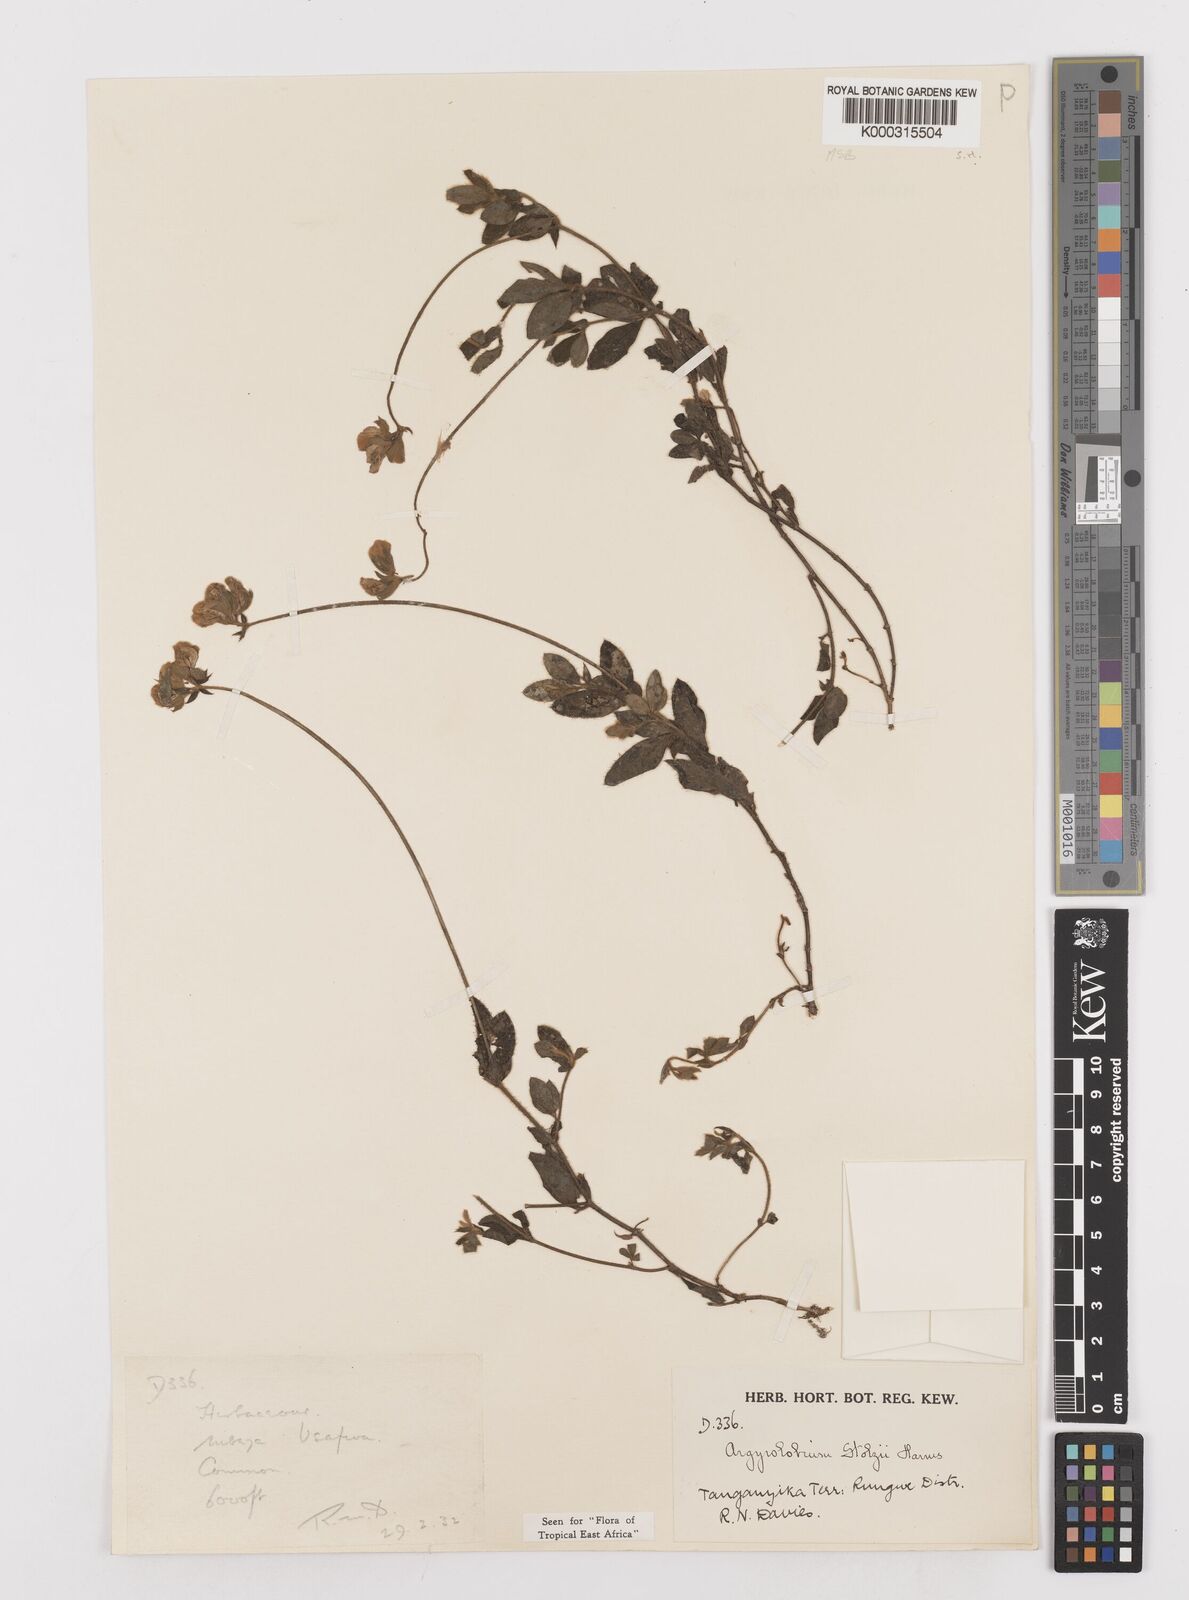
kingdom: Plantae
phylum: Tracheophyta
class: Magnoliopsida
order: Fabales
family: Fabaceae
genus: Argyrolobium
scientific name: Argyrolobium stolzii
